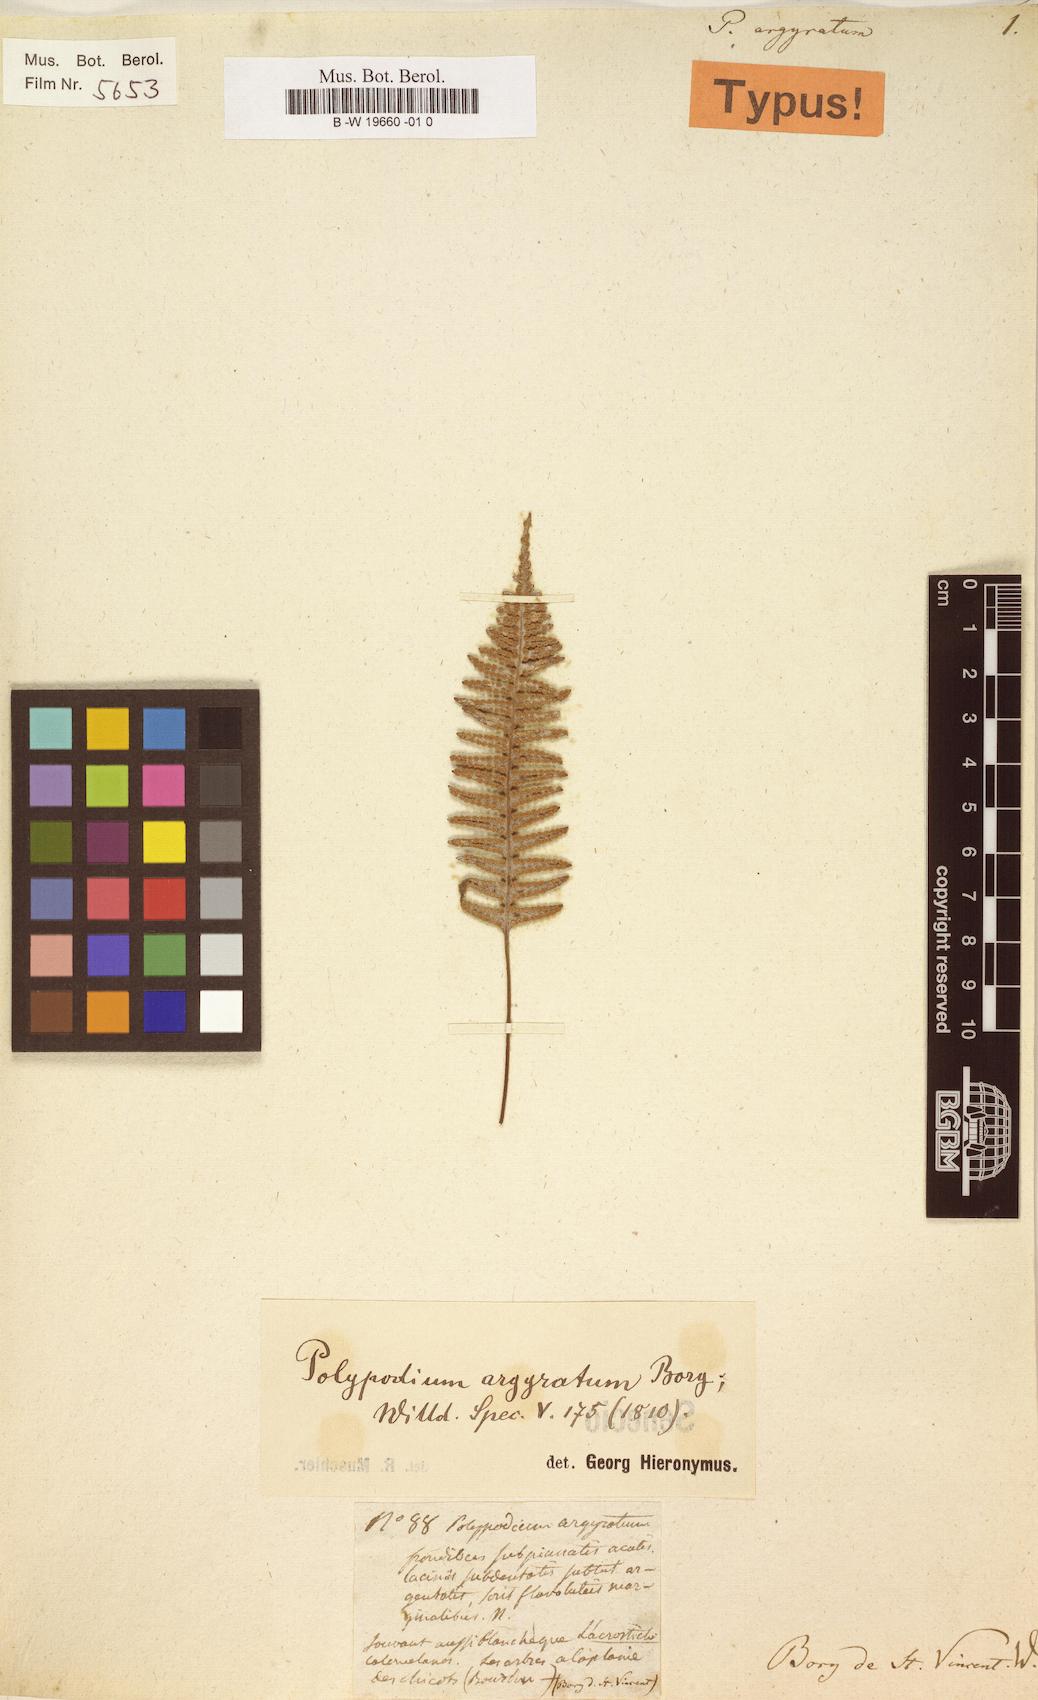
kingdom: Plantae
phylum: Tracheophyta
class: Polypodiopsida
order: Polypodiales
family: Polypodiaceae
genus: Ceradenia
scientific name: Ceradenia argyrata
